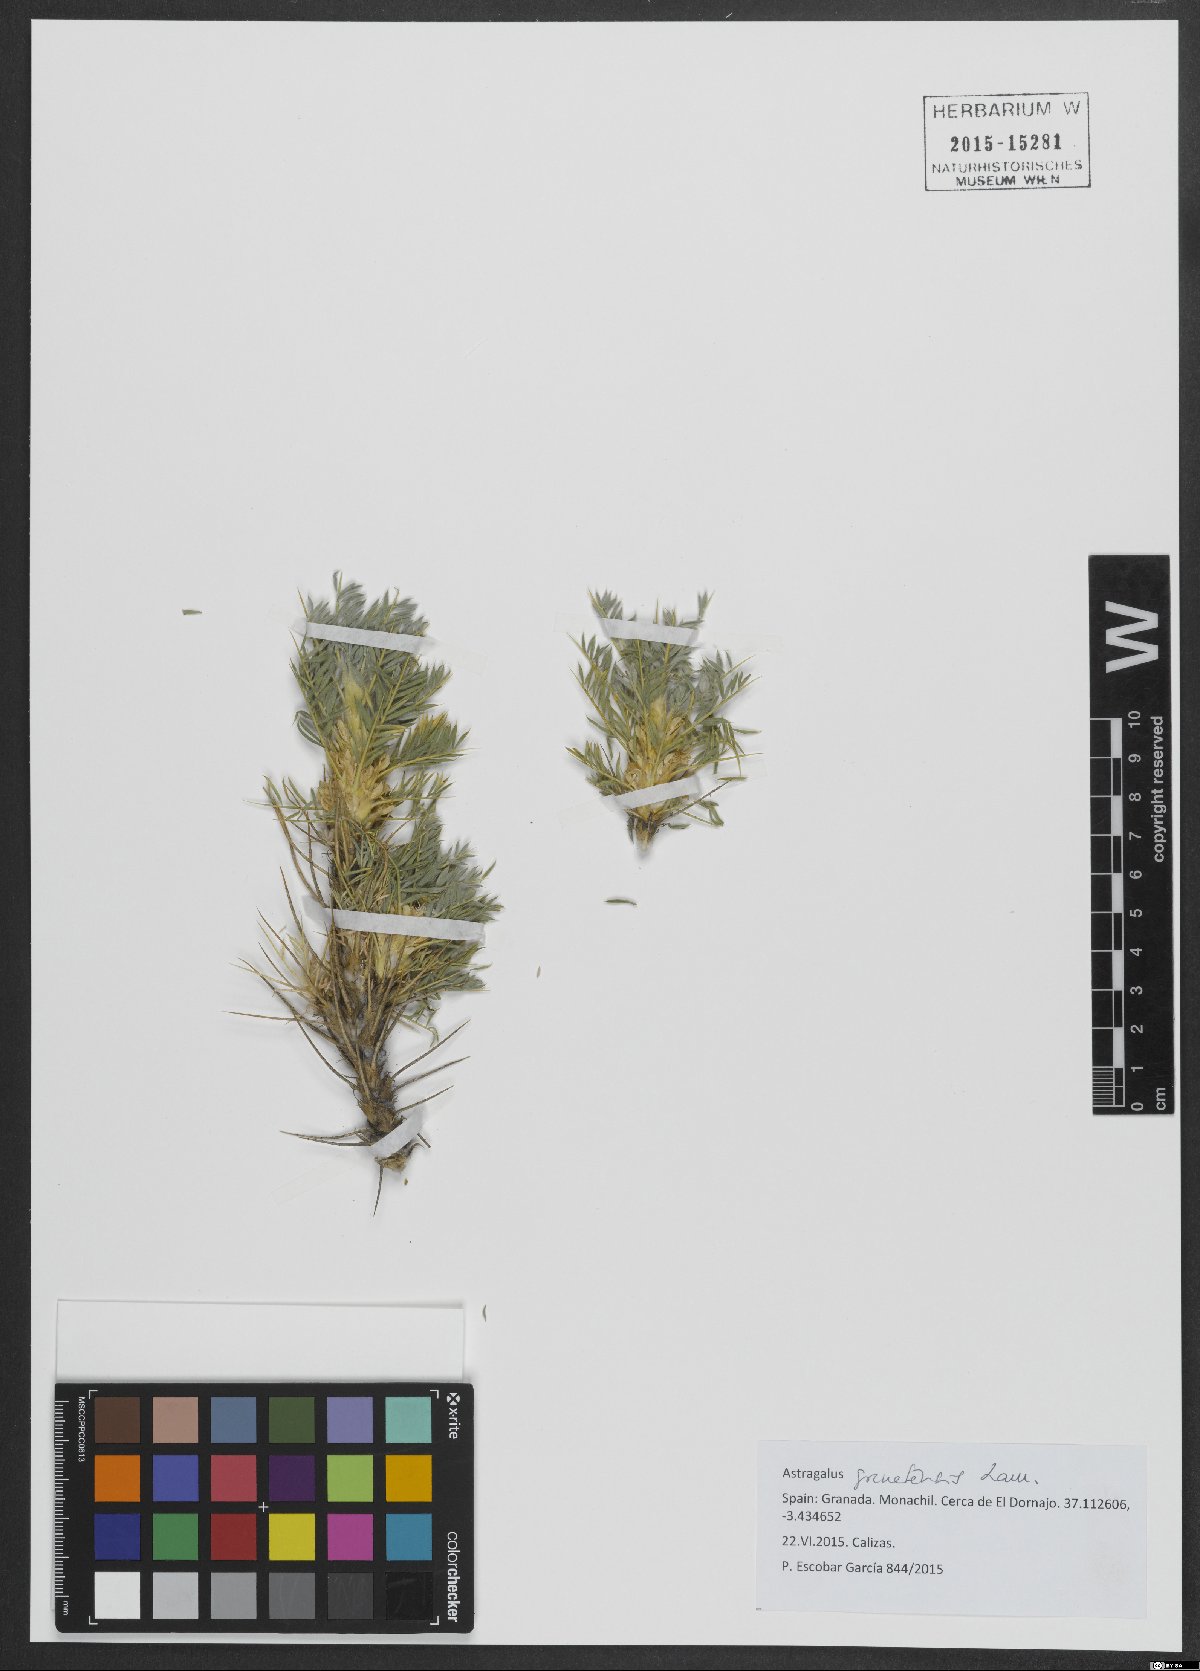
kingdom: Plantae
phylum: Tracheophyta
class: Magnoliopsida
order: Fabales
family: Fabaceae
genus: Astragalus
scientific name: Astragalus granatensis
